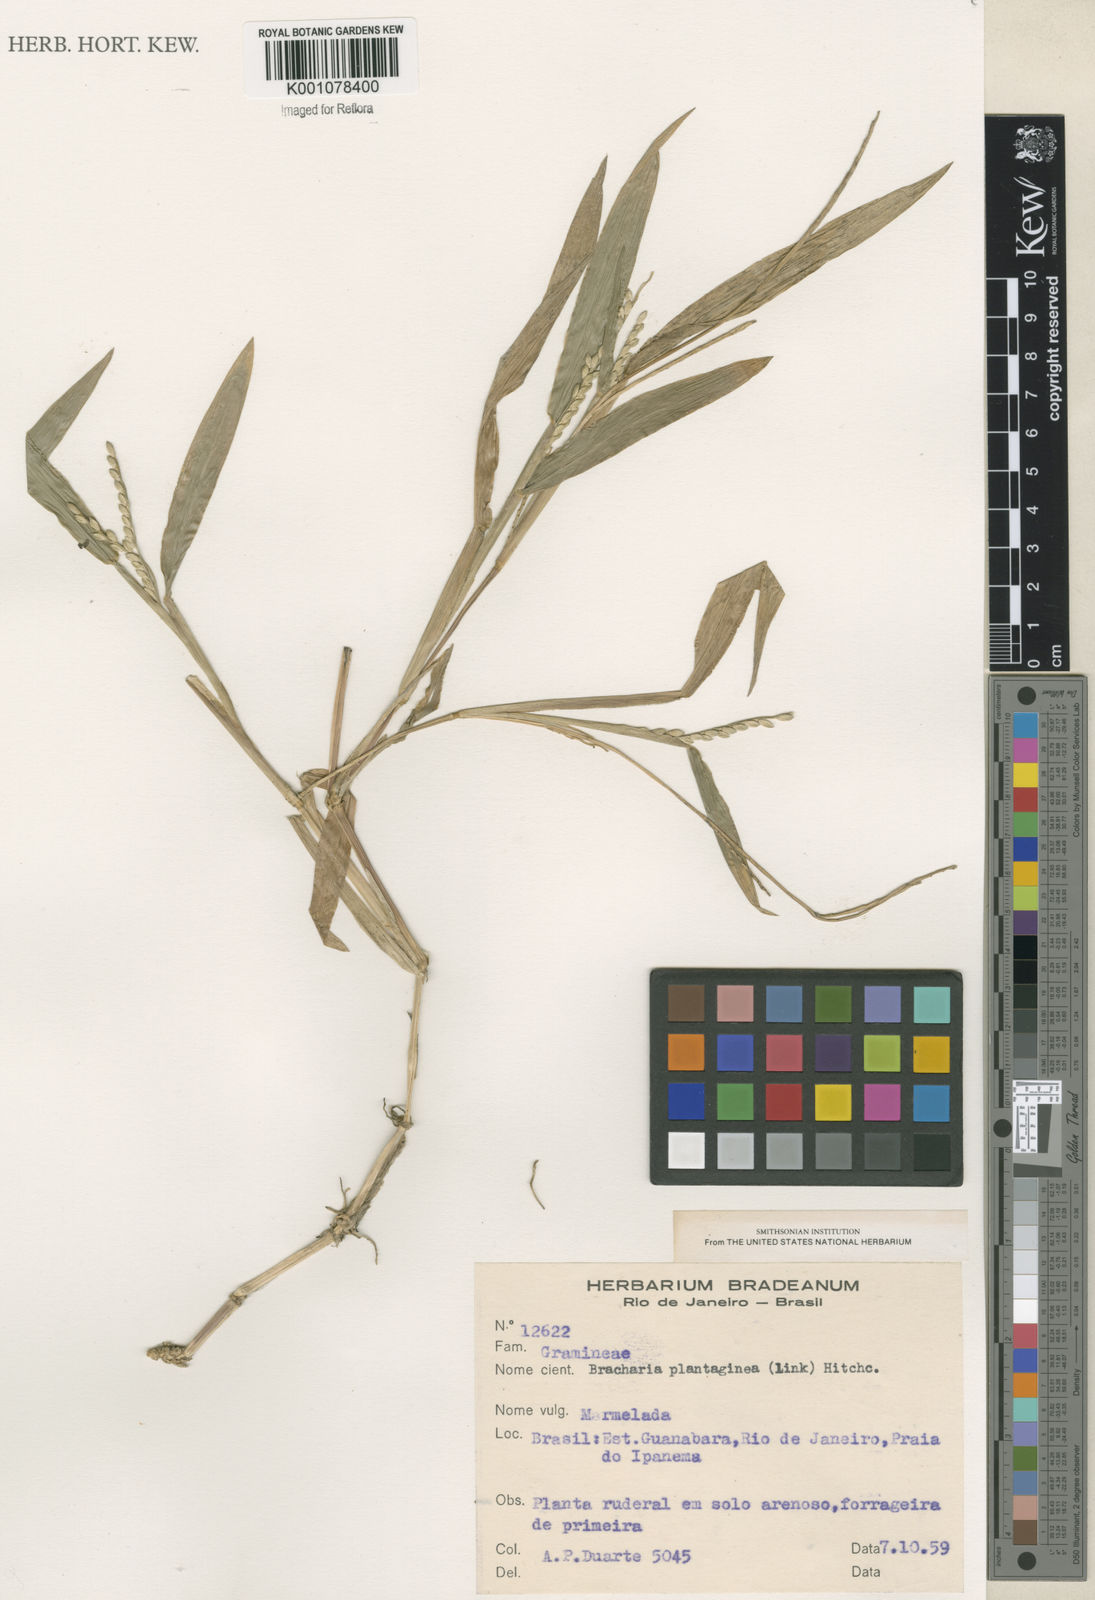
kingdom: Plantae
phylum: Tracheophyta
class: Liliopsida
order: Poales
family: Poaceae
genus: Urochloa
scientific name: Urochloa plantaginea
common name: Plantain signalgrass
